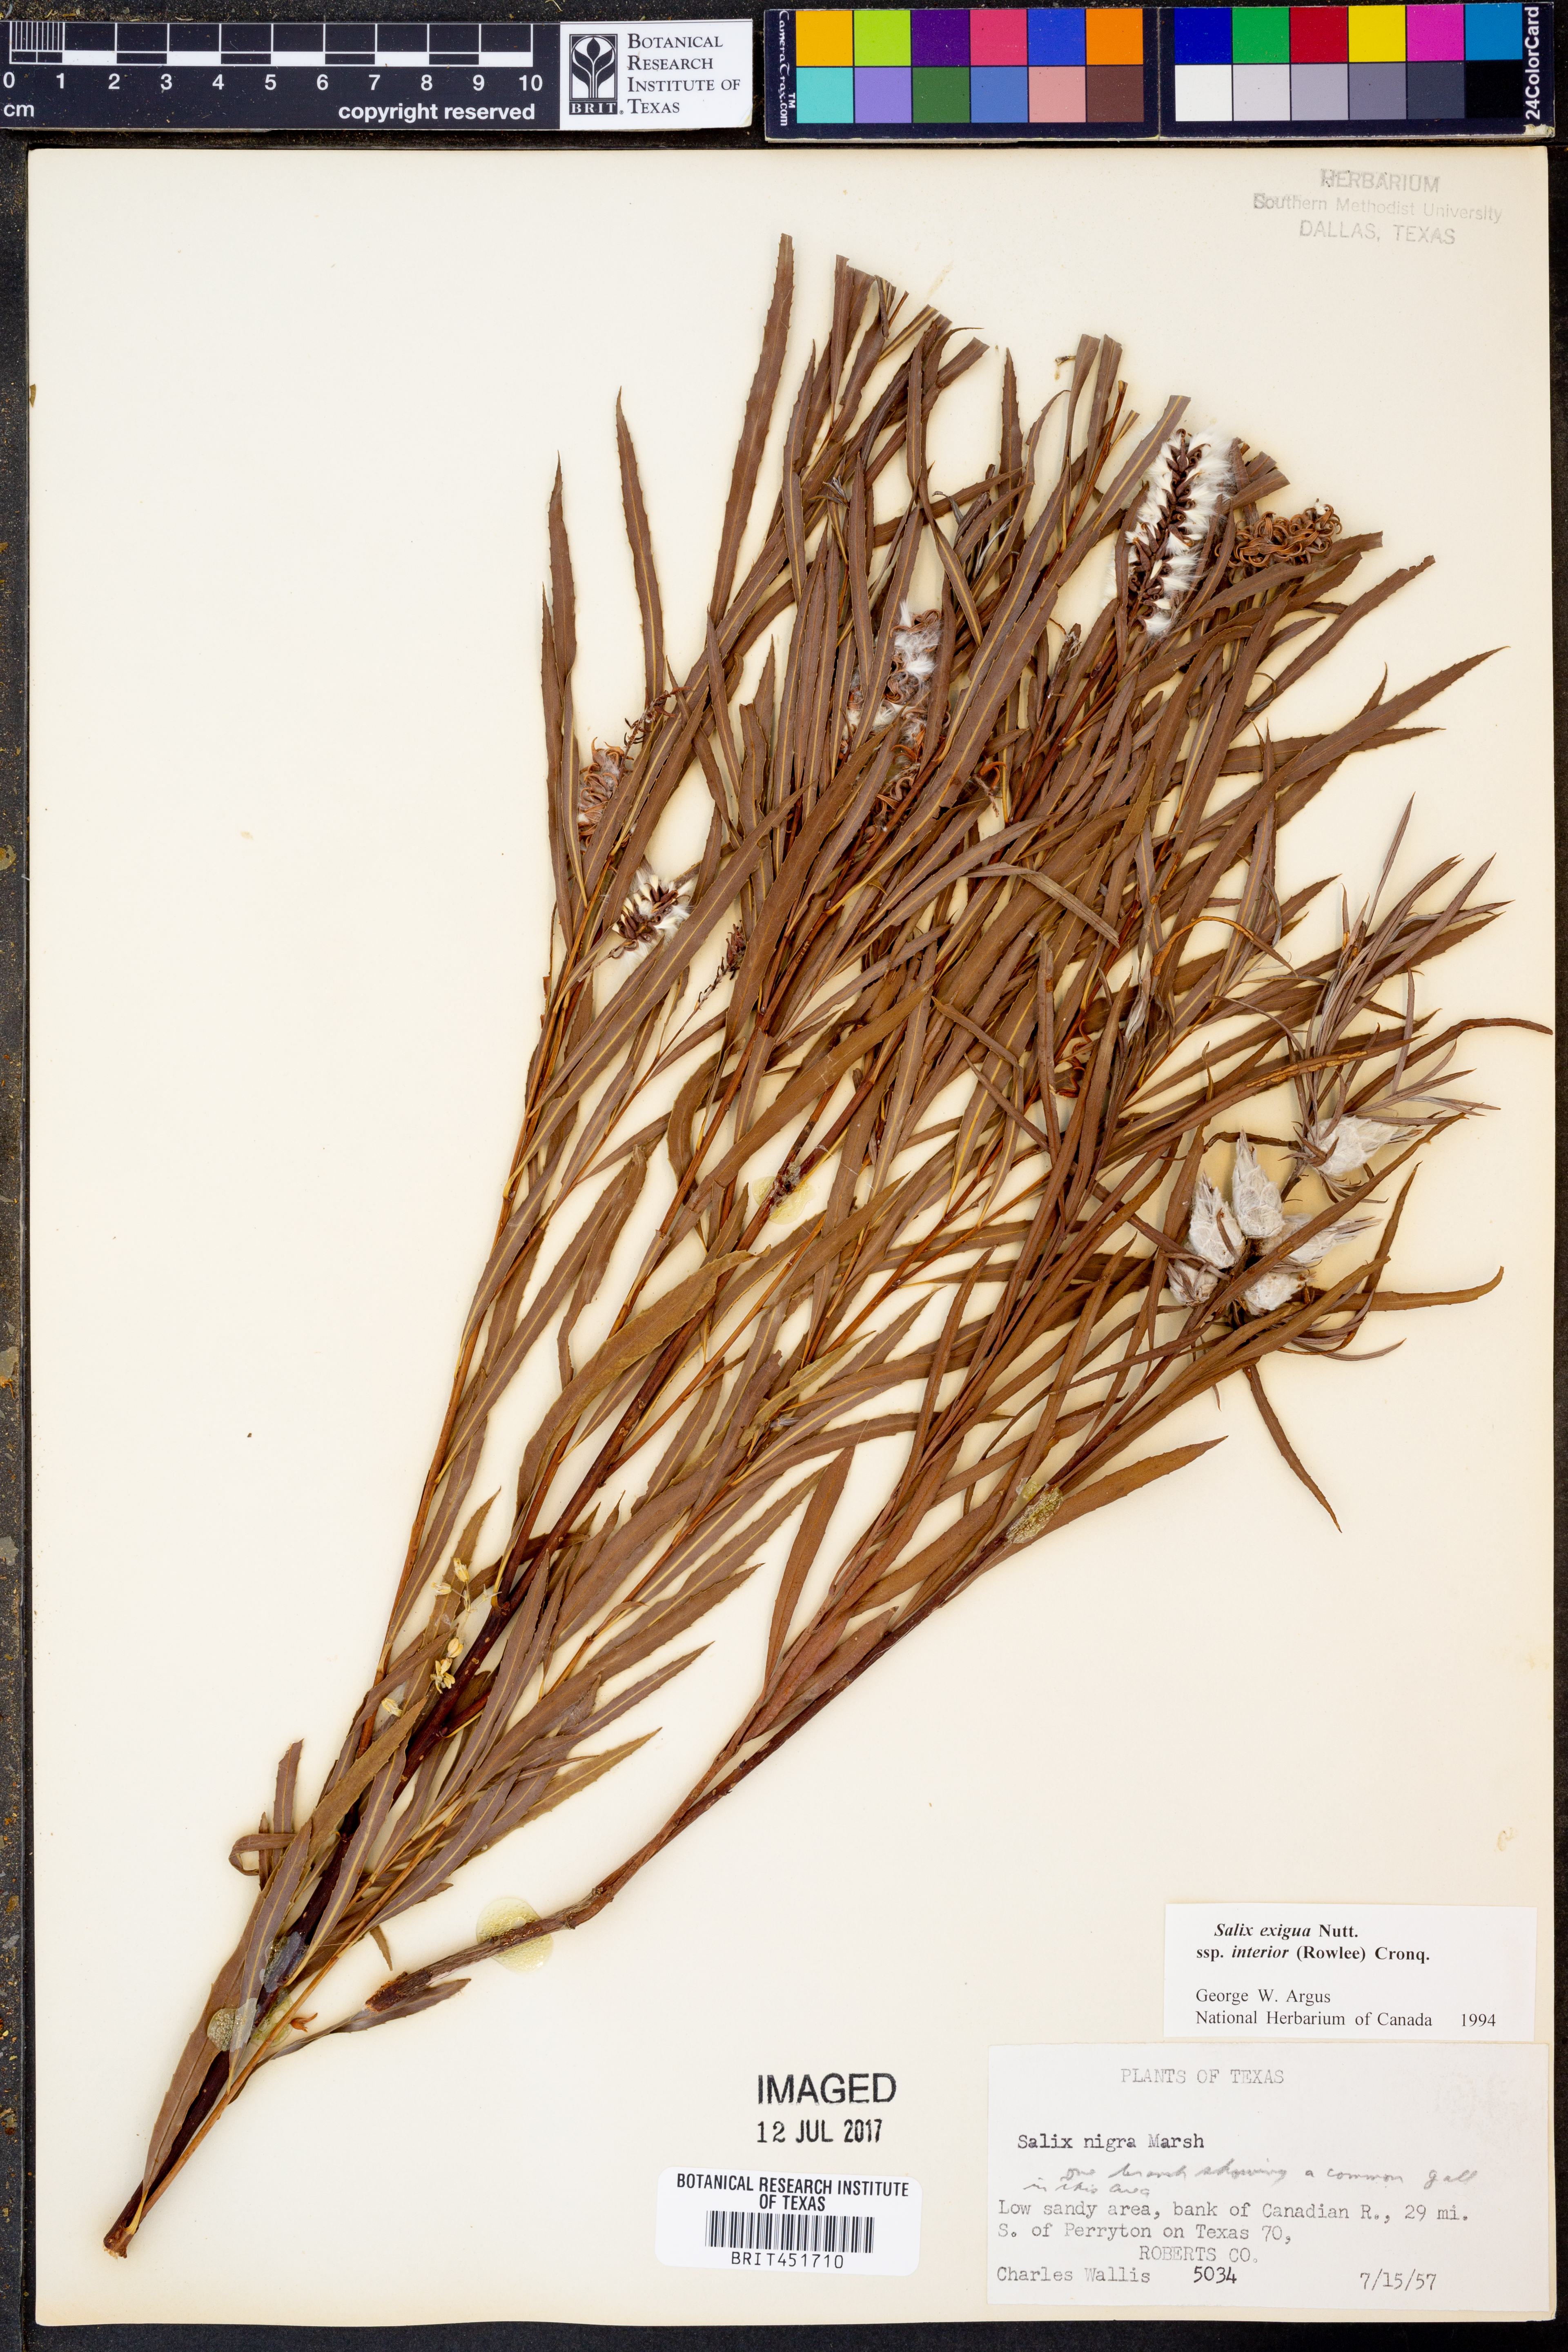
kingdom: Plantae
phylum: Tracheophyta
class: Magnoliopsida
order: Malpighiales
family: Salicaceae
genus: Salix
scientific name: Salix interior
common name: Sandbar willow
